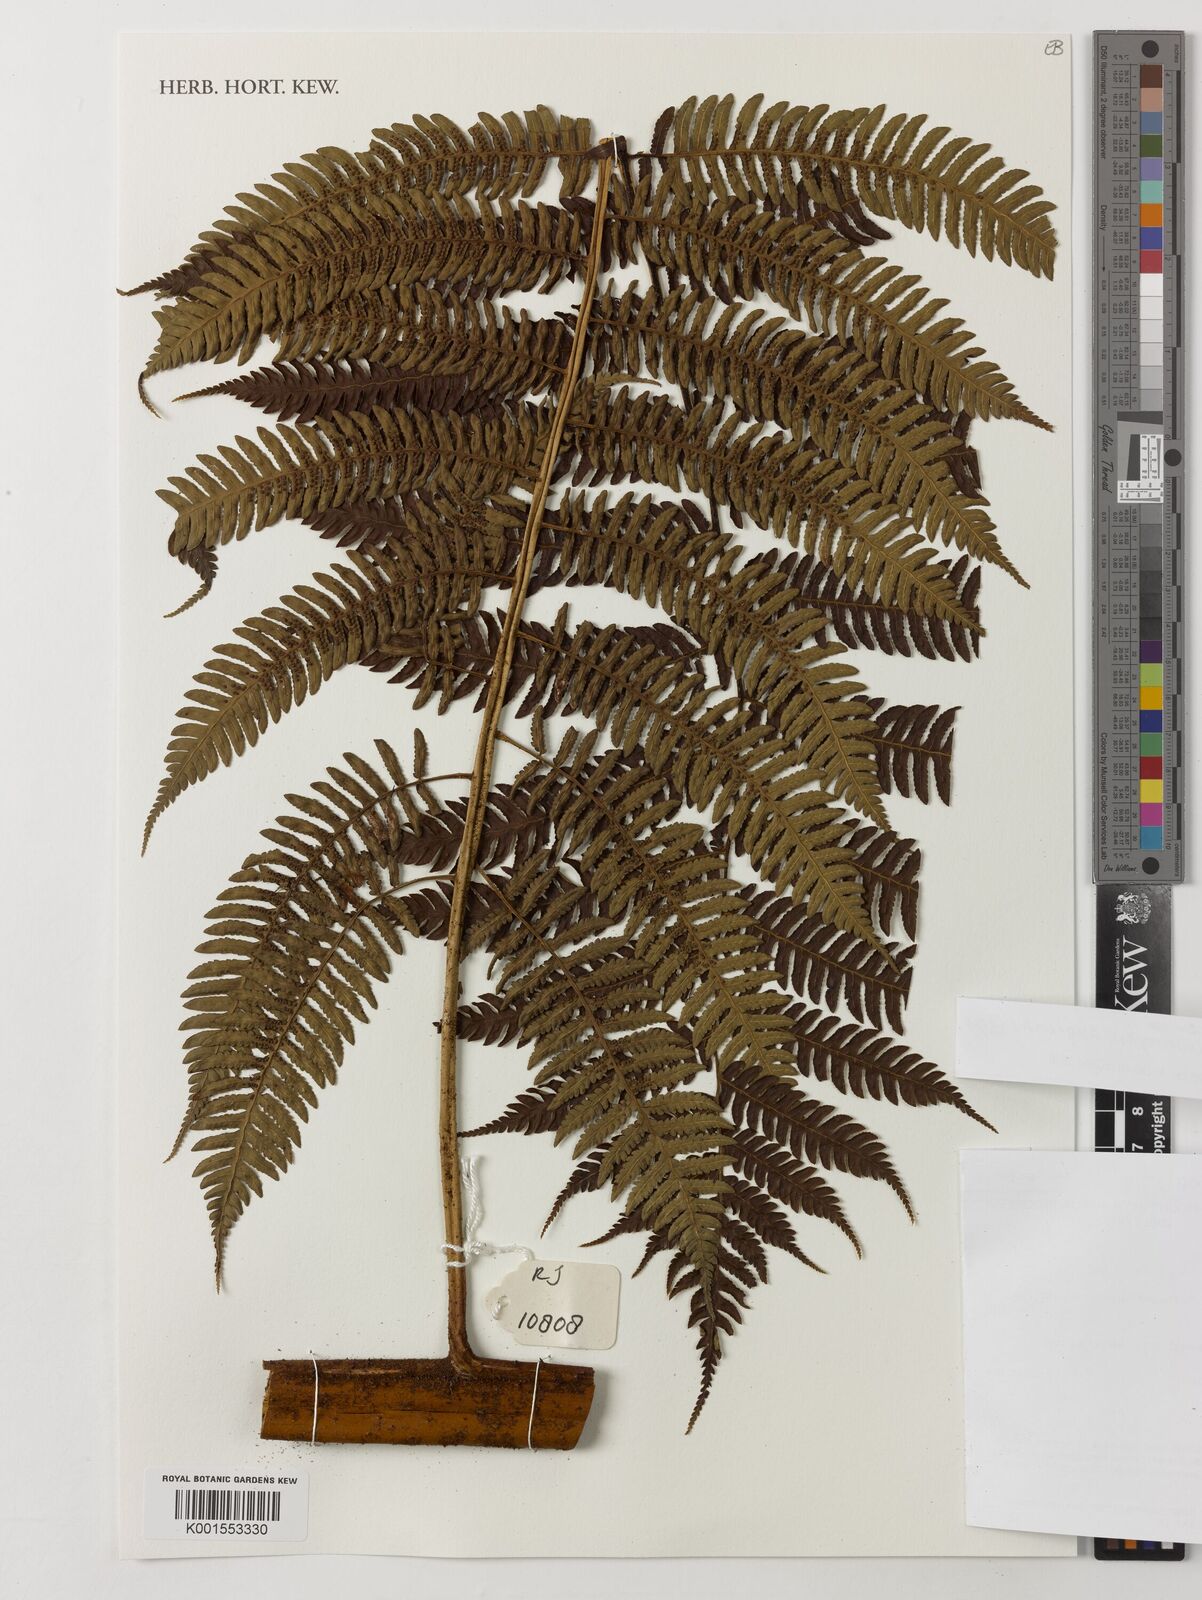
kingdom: Plantae
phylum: Tracheophyta
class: Polypodiopsida
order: Cyatheales
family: Cyatheaceae
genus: Sphaeropteris
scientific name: Sphaeropteris
